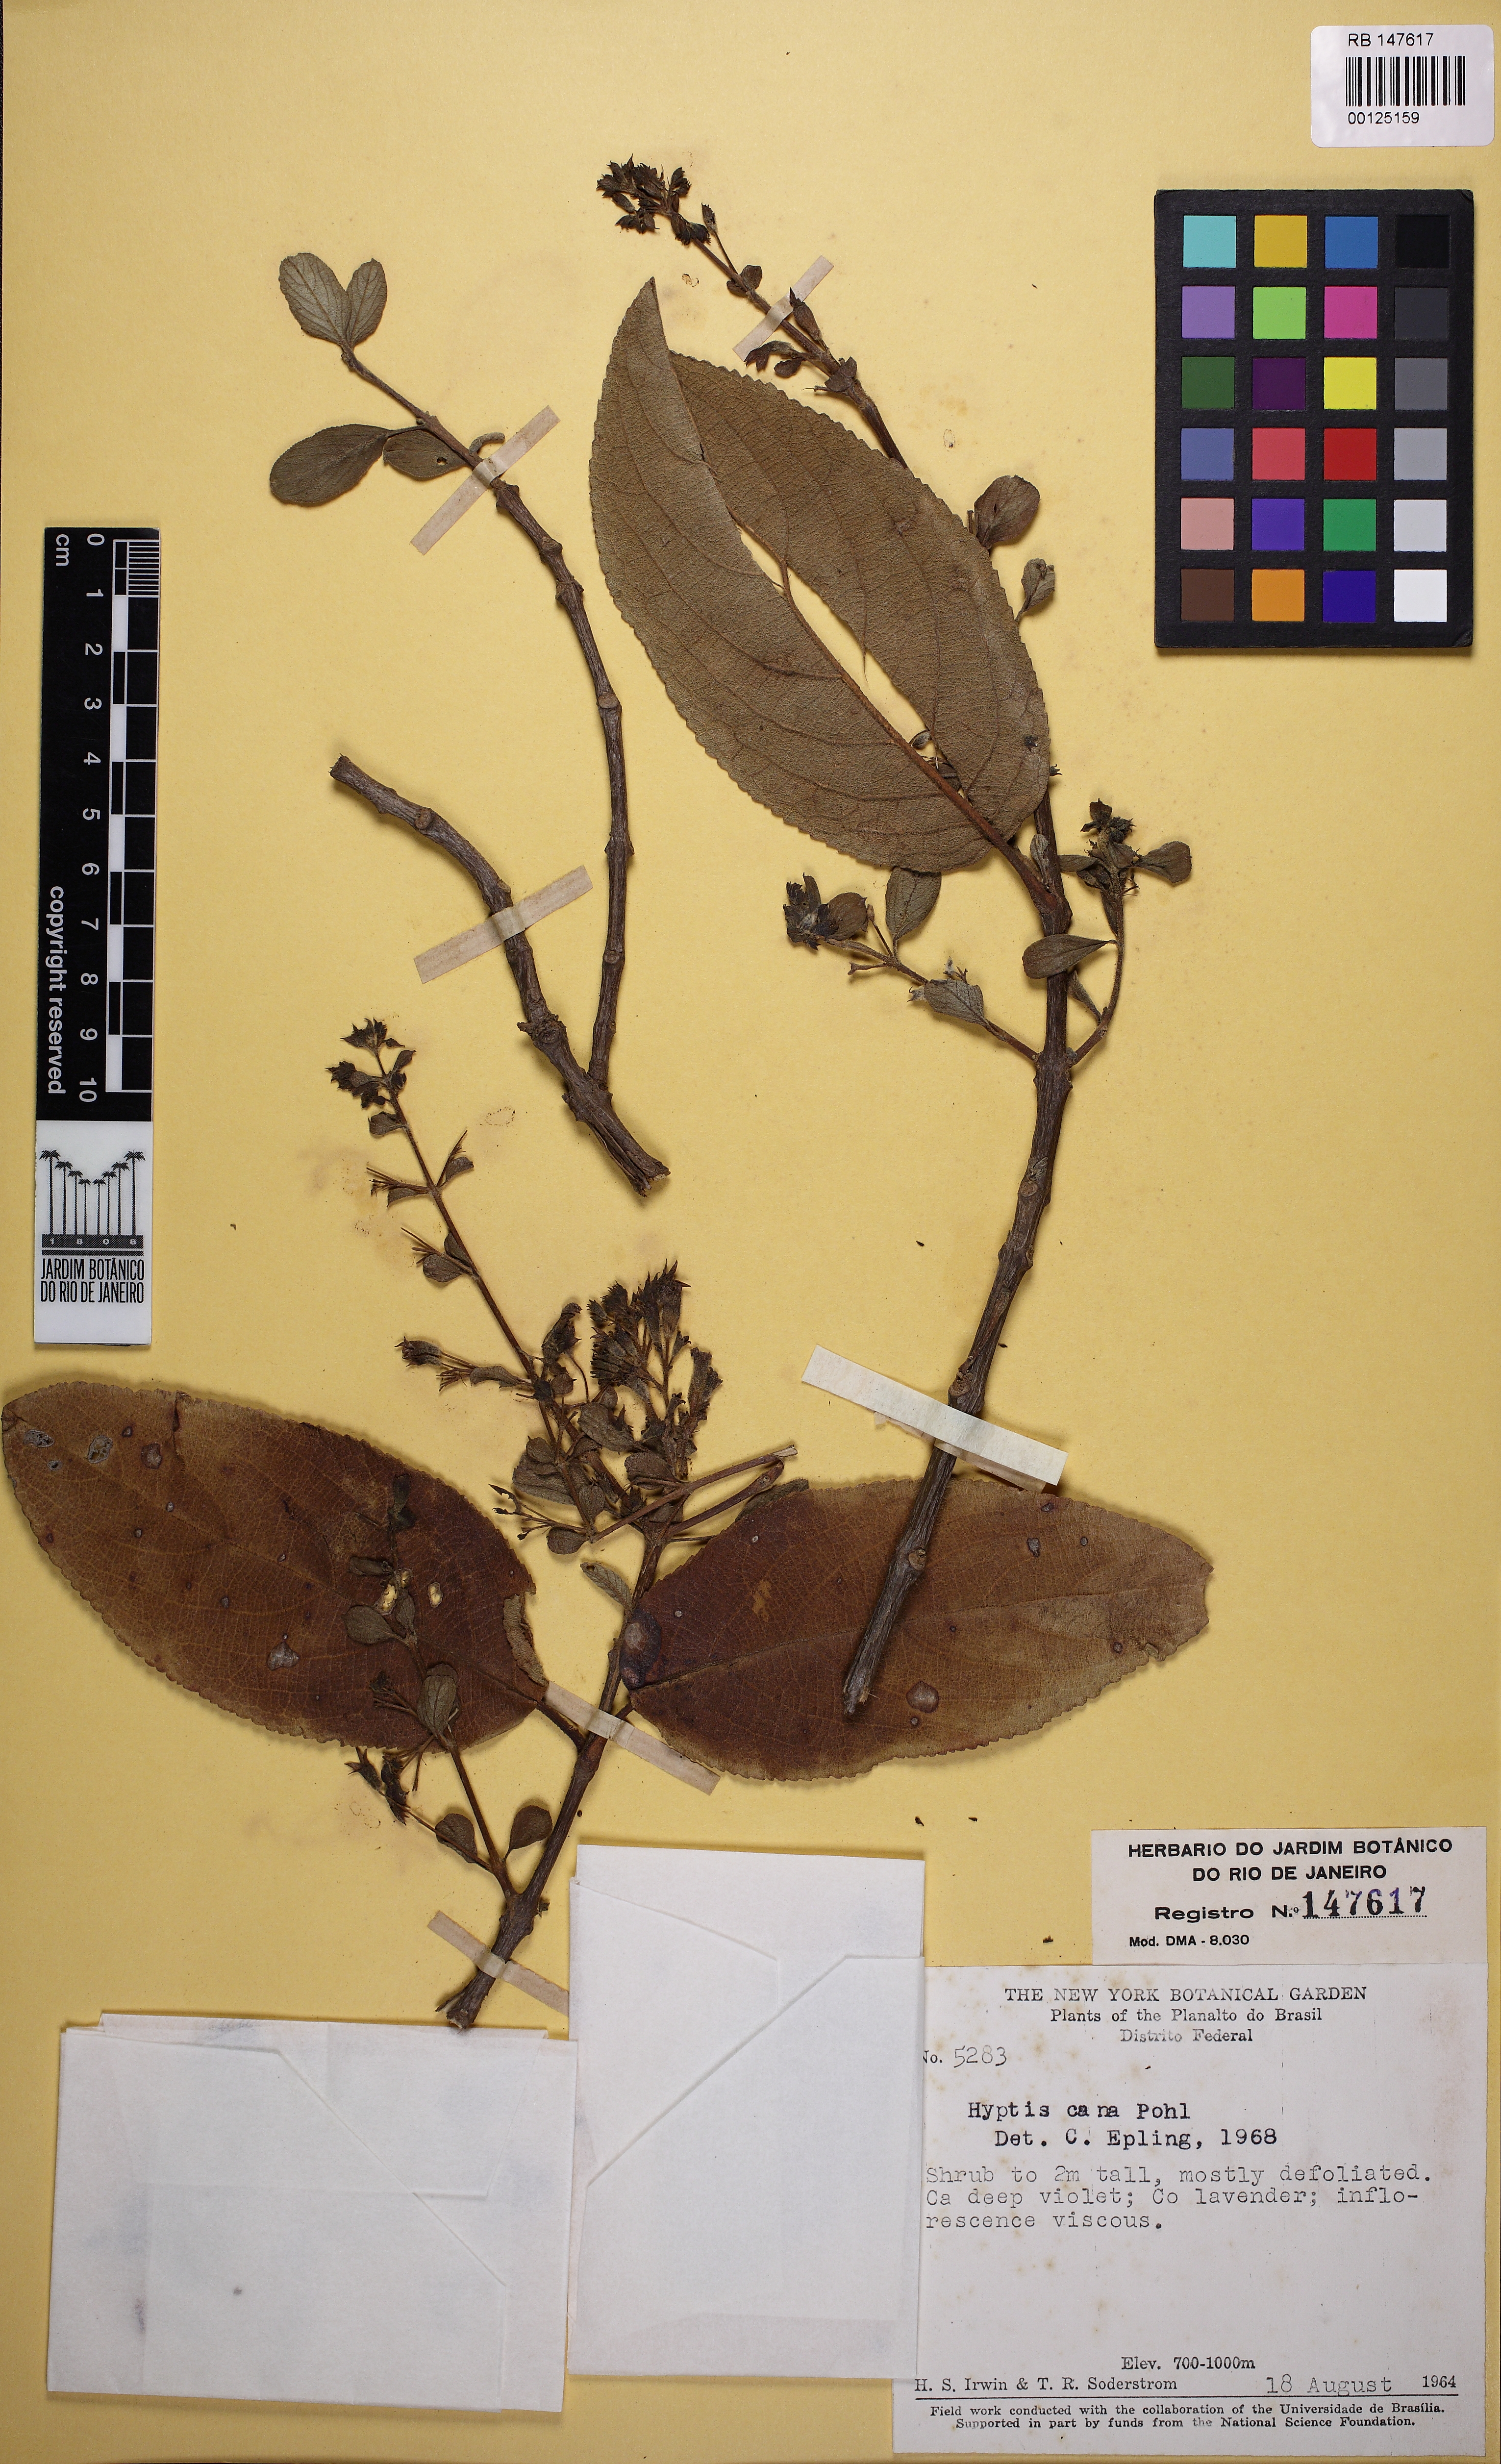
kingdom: Plantae
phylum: Tracheophyta
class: Magnoliopsida
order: Lamiales
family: Lamiaceae
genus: Hyptidendron
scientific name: Hyptidendron canum
